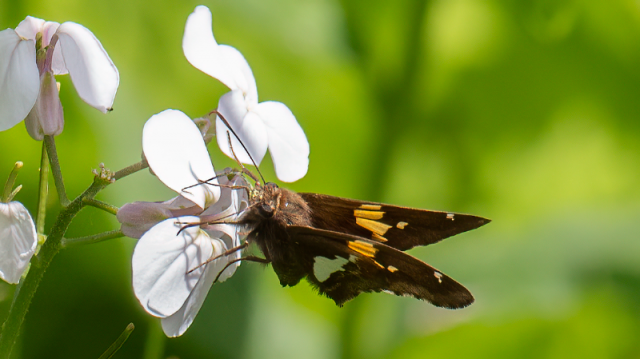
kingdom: Animalia
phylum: Arthropoda
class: Insecta
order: Lepidoptera
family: Hesperiidae
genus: Epargyreus
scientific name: Epargyreus clarus
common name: Silver-spotted Skipper
